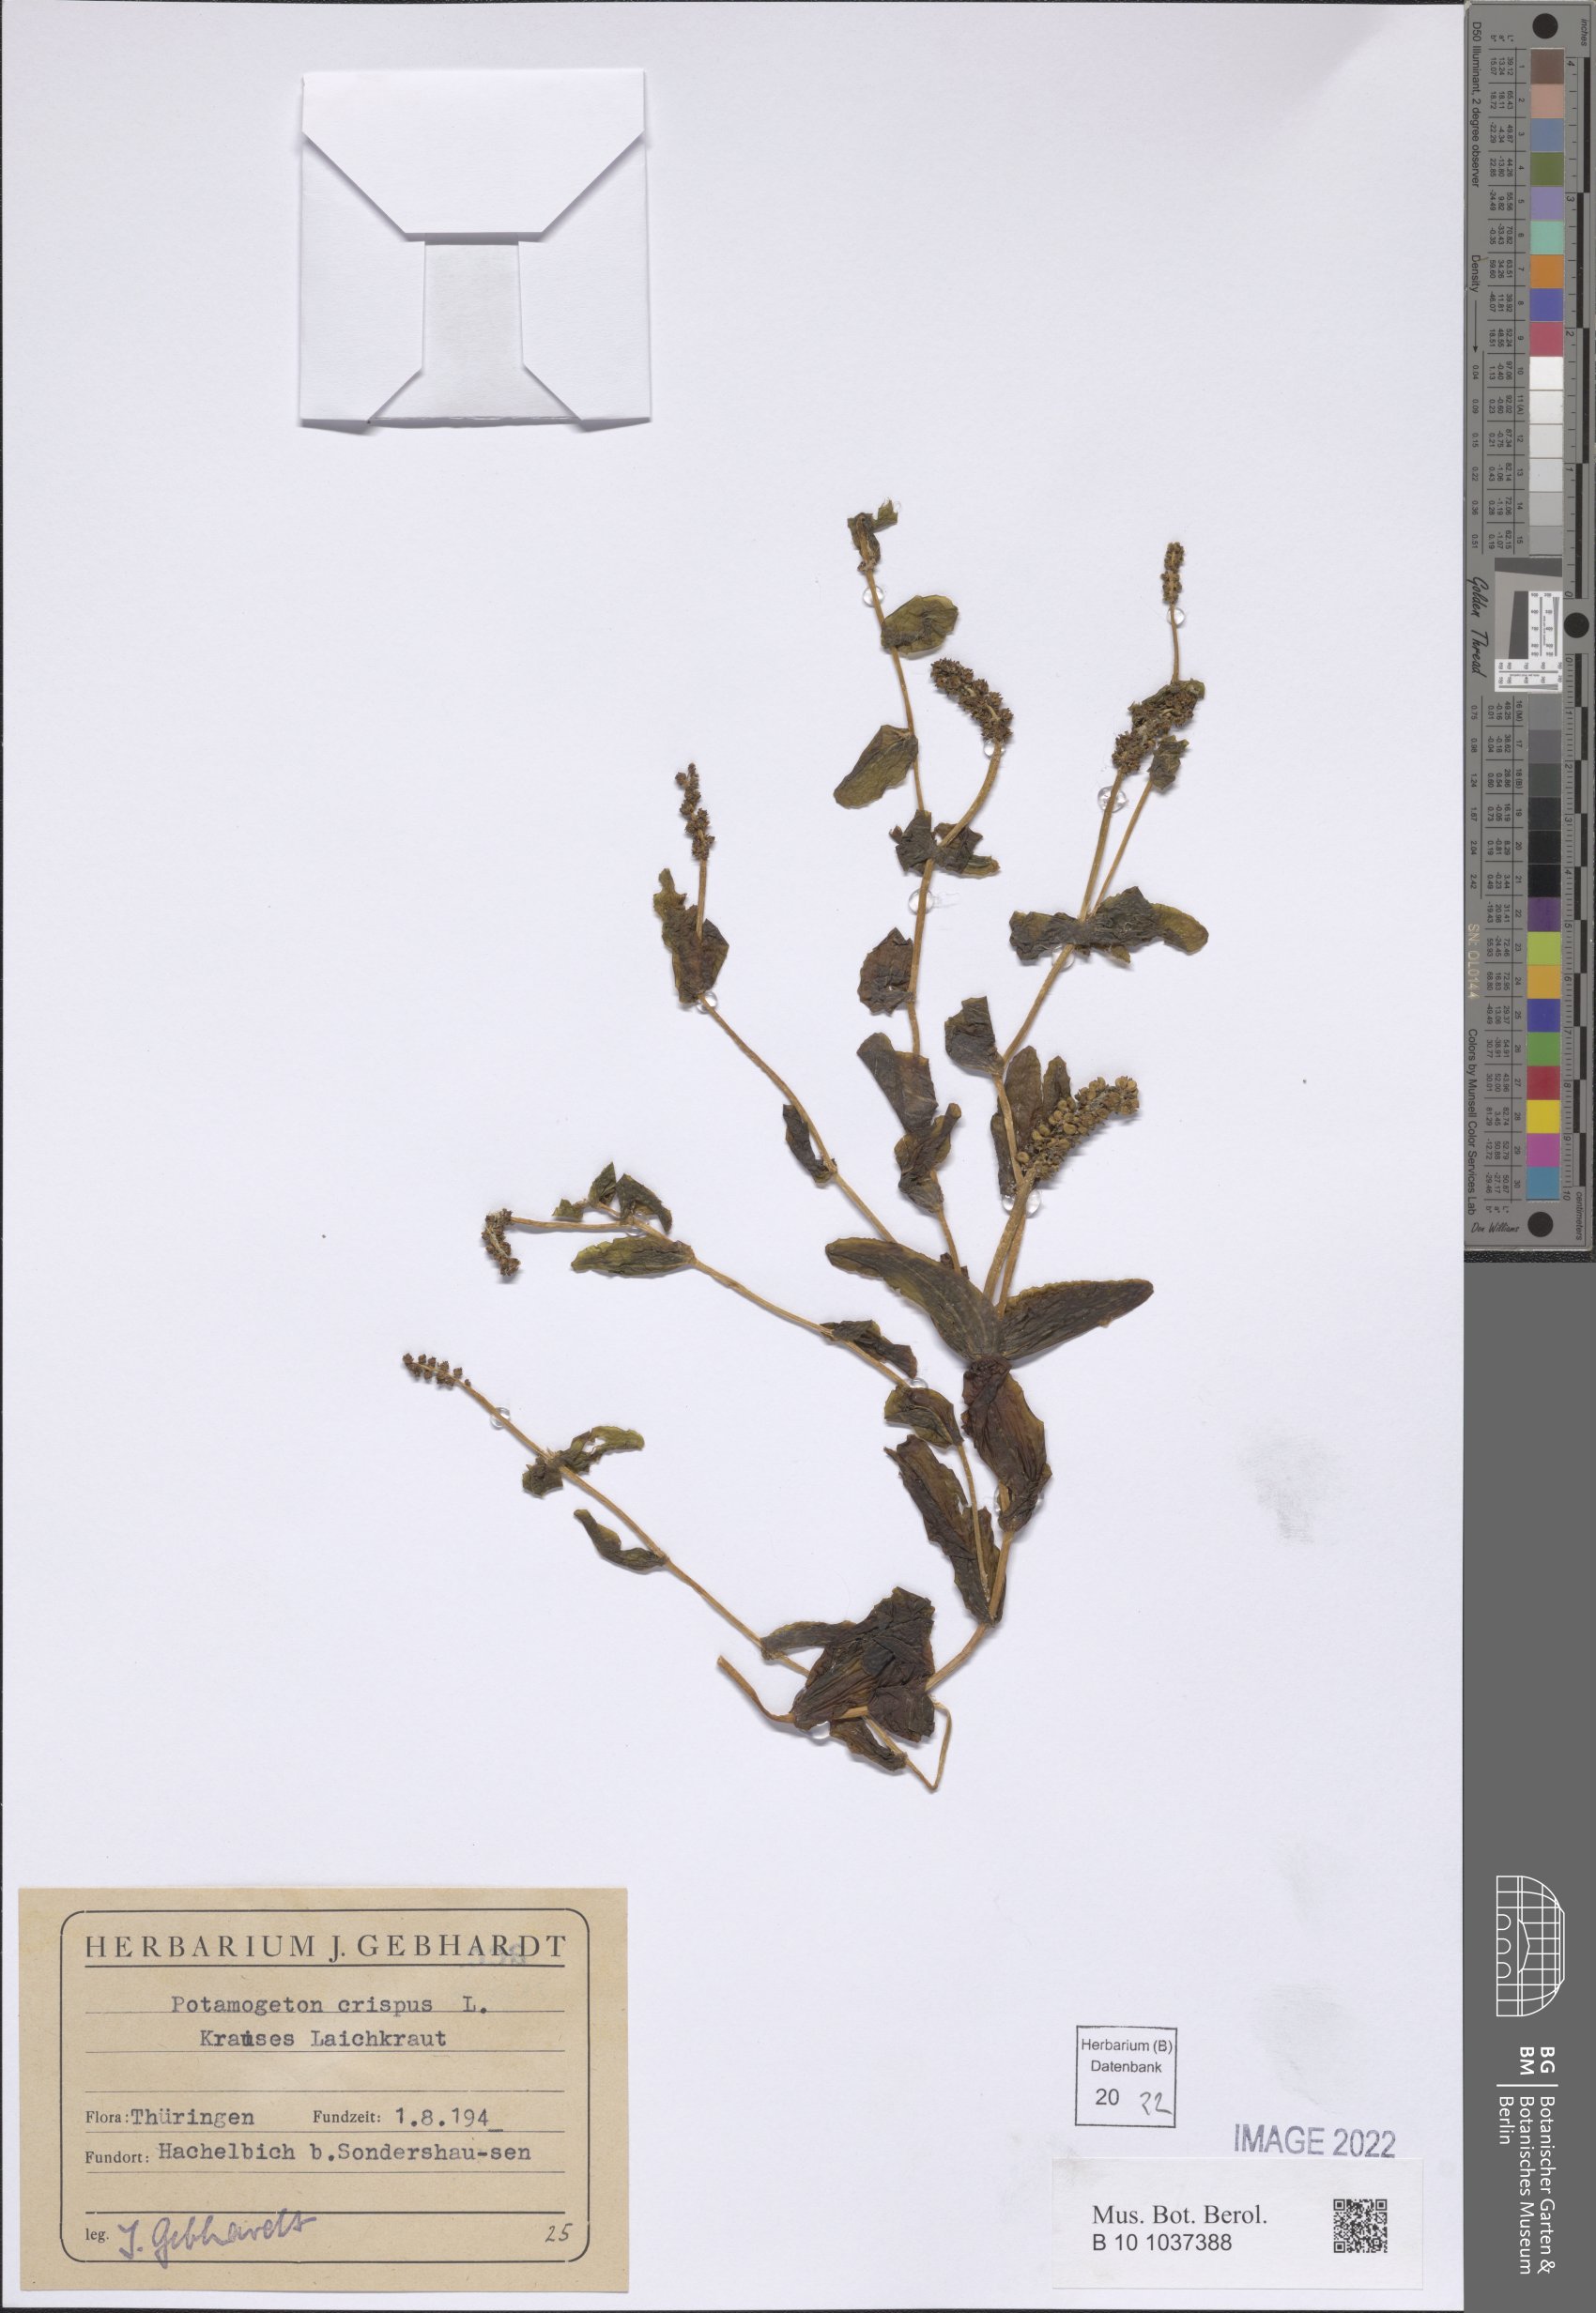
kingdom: Plantae
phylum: Tracheophyta
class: Liliopsida
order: Alismatales
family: Potamogetonaceae
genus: Potamogeton
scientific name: Potamogeton crispus
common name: Curled pondweed
